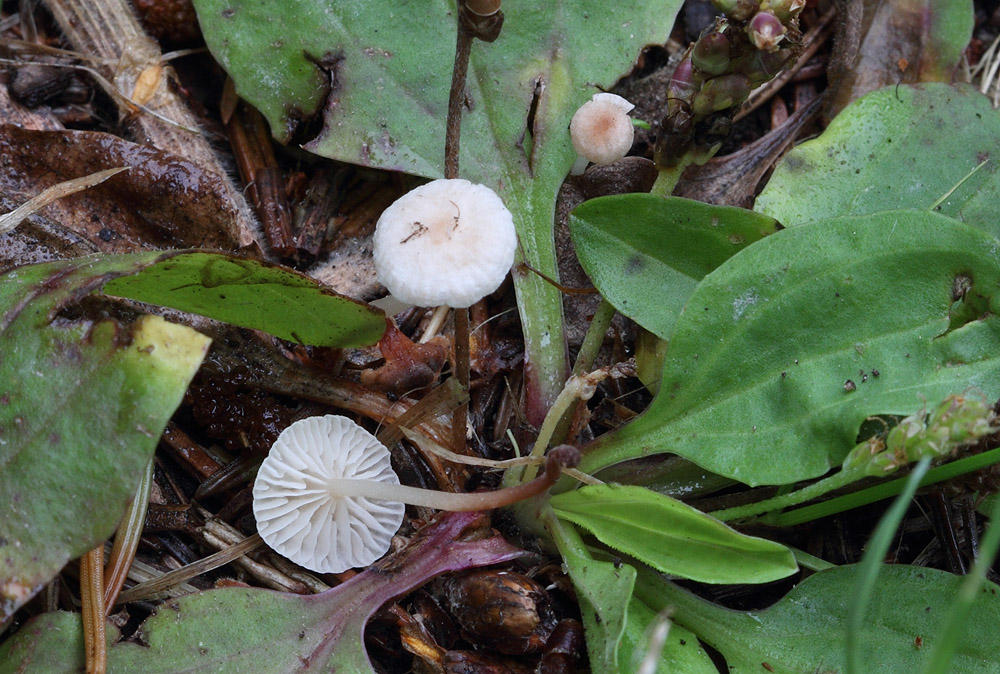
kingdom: Fungi
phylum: Basidiomycota
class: Agaricomycetes
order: Agaricales
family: Omphalotaceae
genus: Collybiopsis
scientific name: Collybiopsis vaillantii
